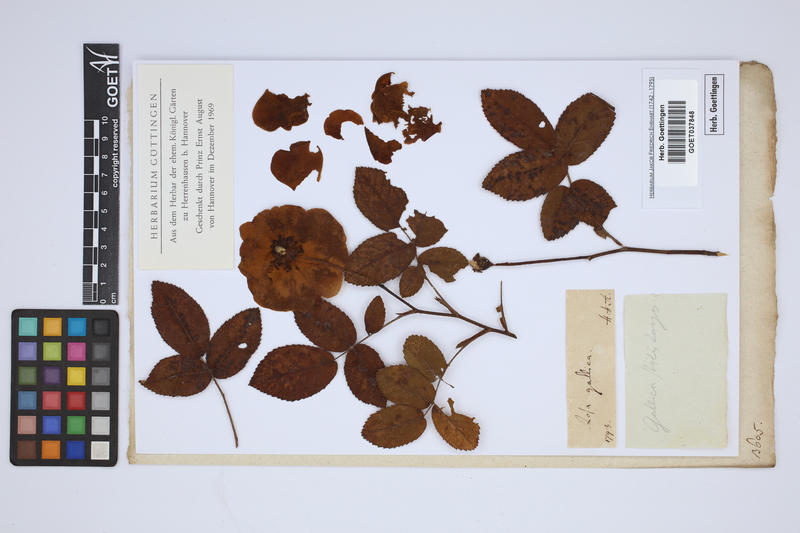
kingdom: Plantae
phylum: Tracheophyta
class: Magnoliopsida
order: Rosales
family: Rosaceae
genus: Rosa
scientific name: Rosa gallica
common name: French rose
